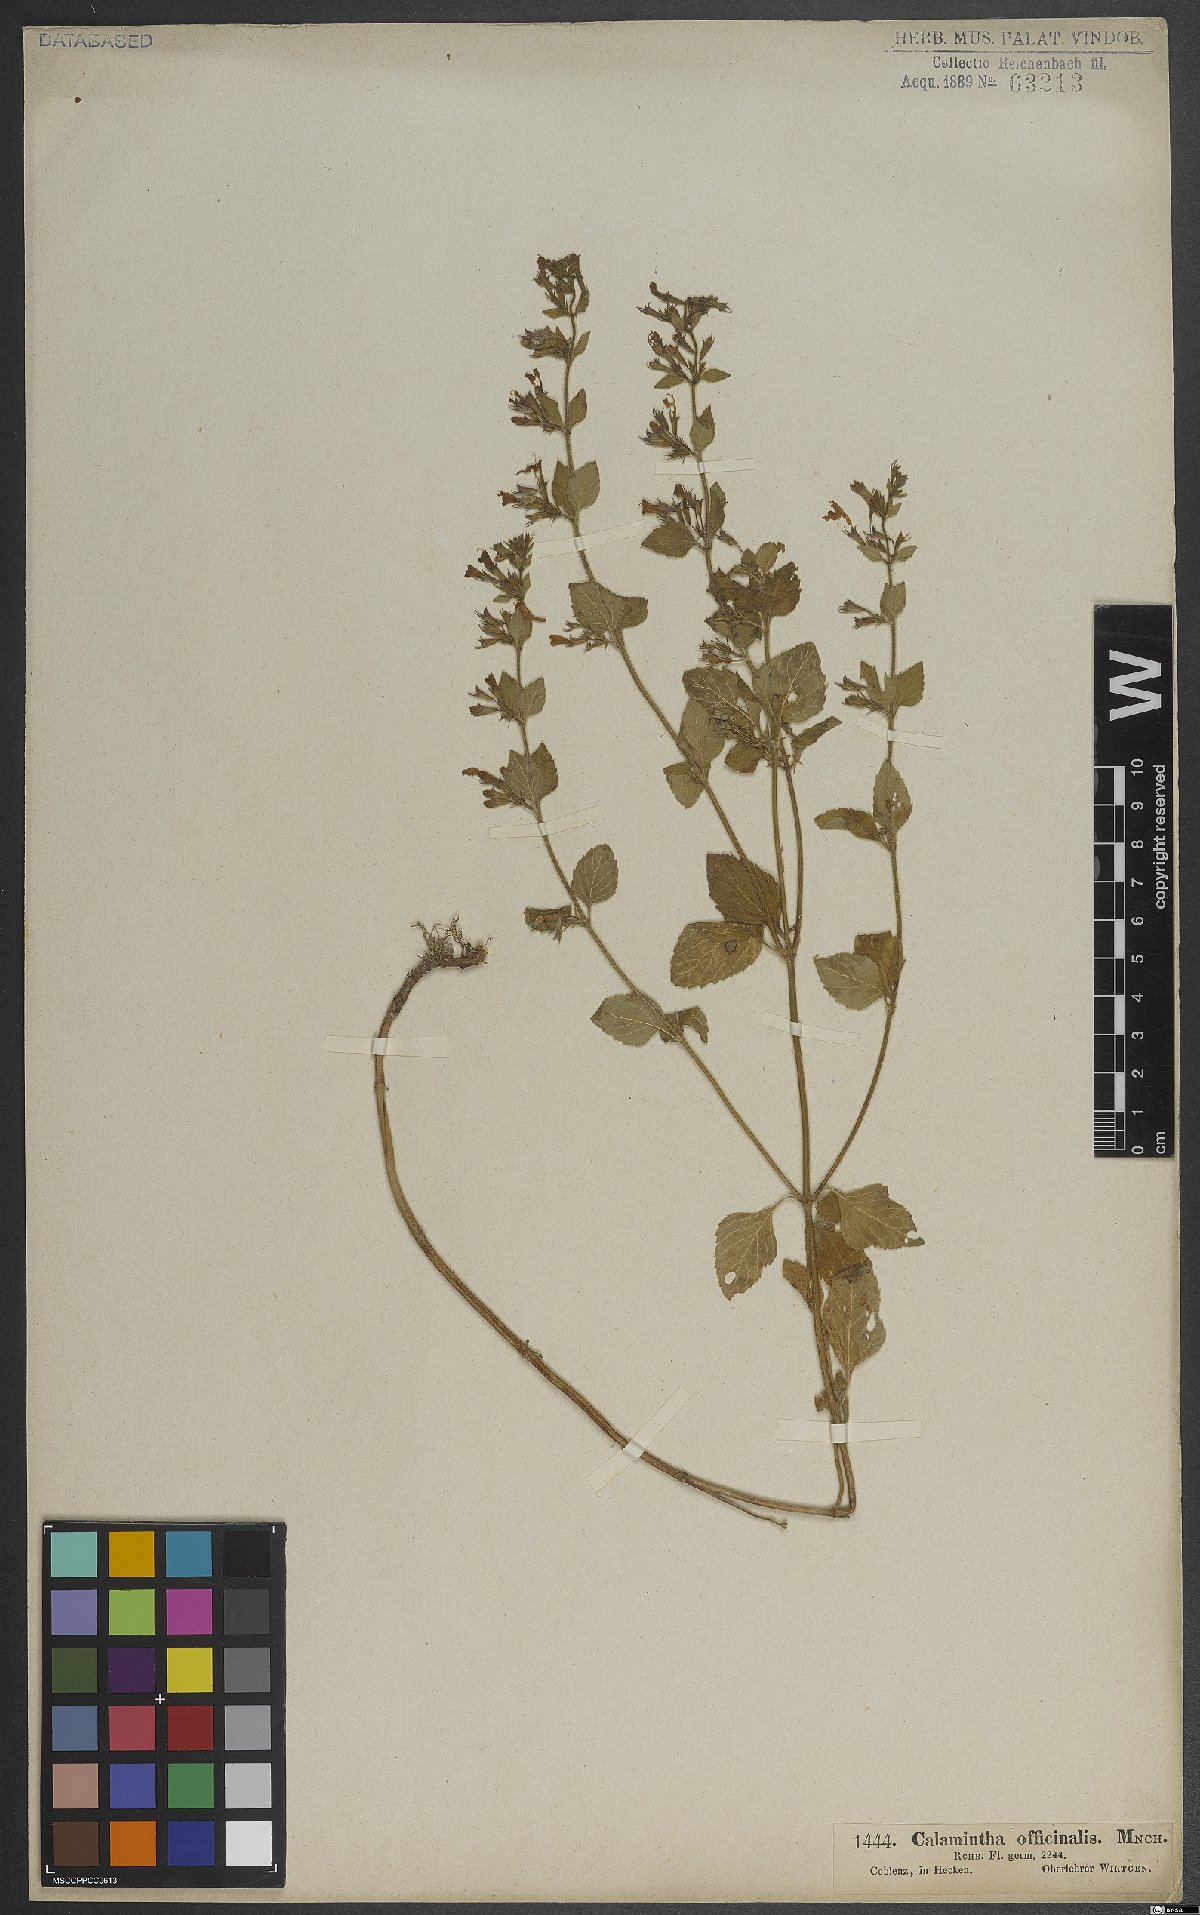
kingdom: Plantae
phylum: Tracheophyta
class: Magnoliopsida
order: Lamiales
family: Lamiaceae
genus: Clinopodium
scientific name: Clinopodium nepeta
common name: Lesser calamint
